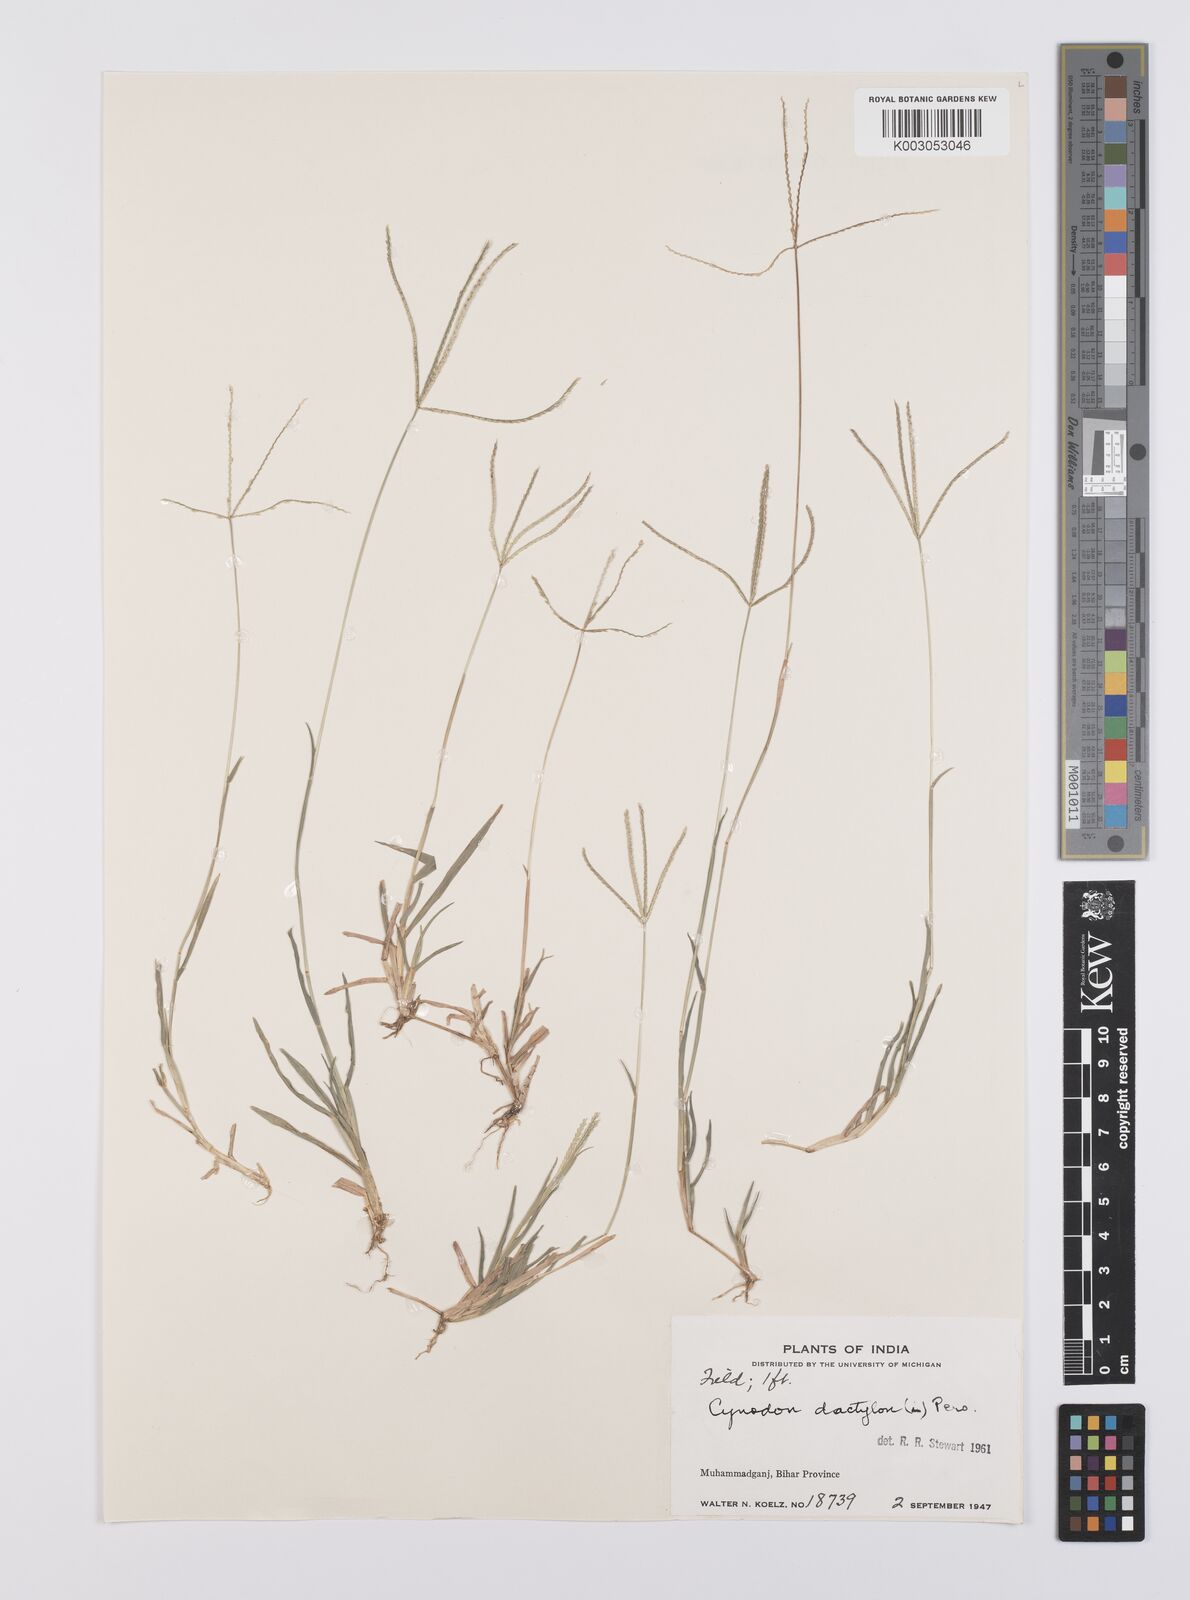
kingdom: Plantae
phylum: Tracheophyta
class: Liliopsida
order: Poales
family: Poaceae
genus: Cynodon
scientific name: Cynodon radiatus
